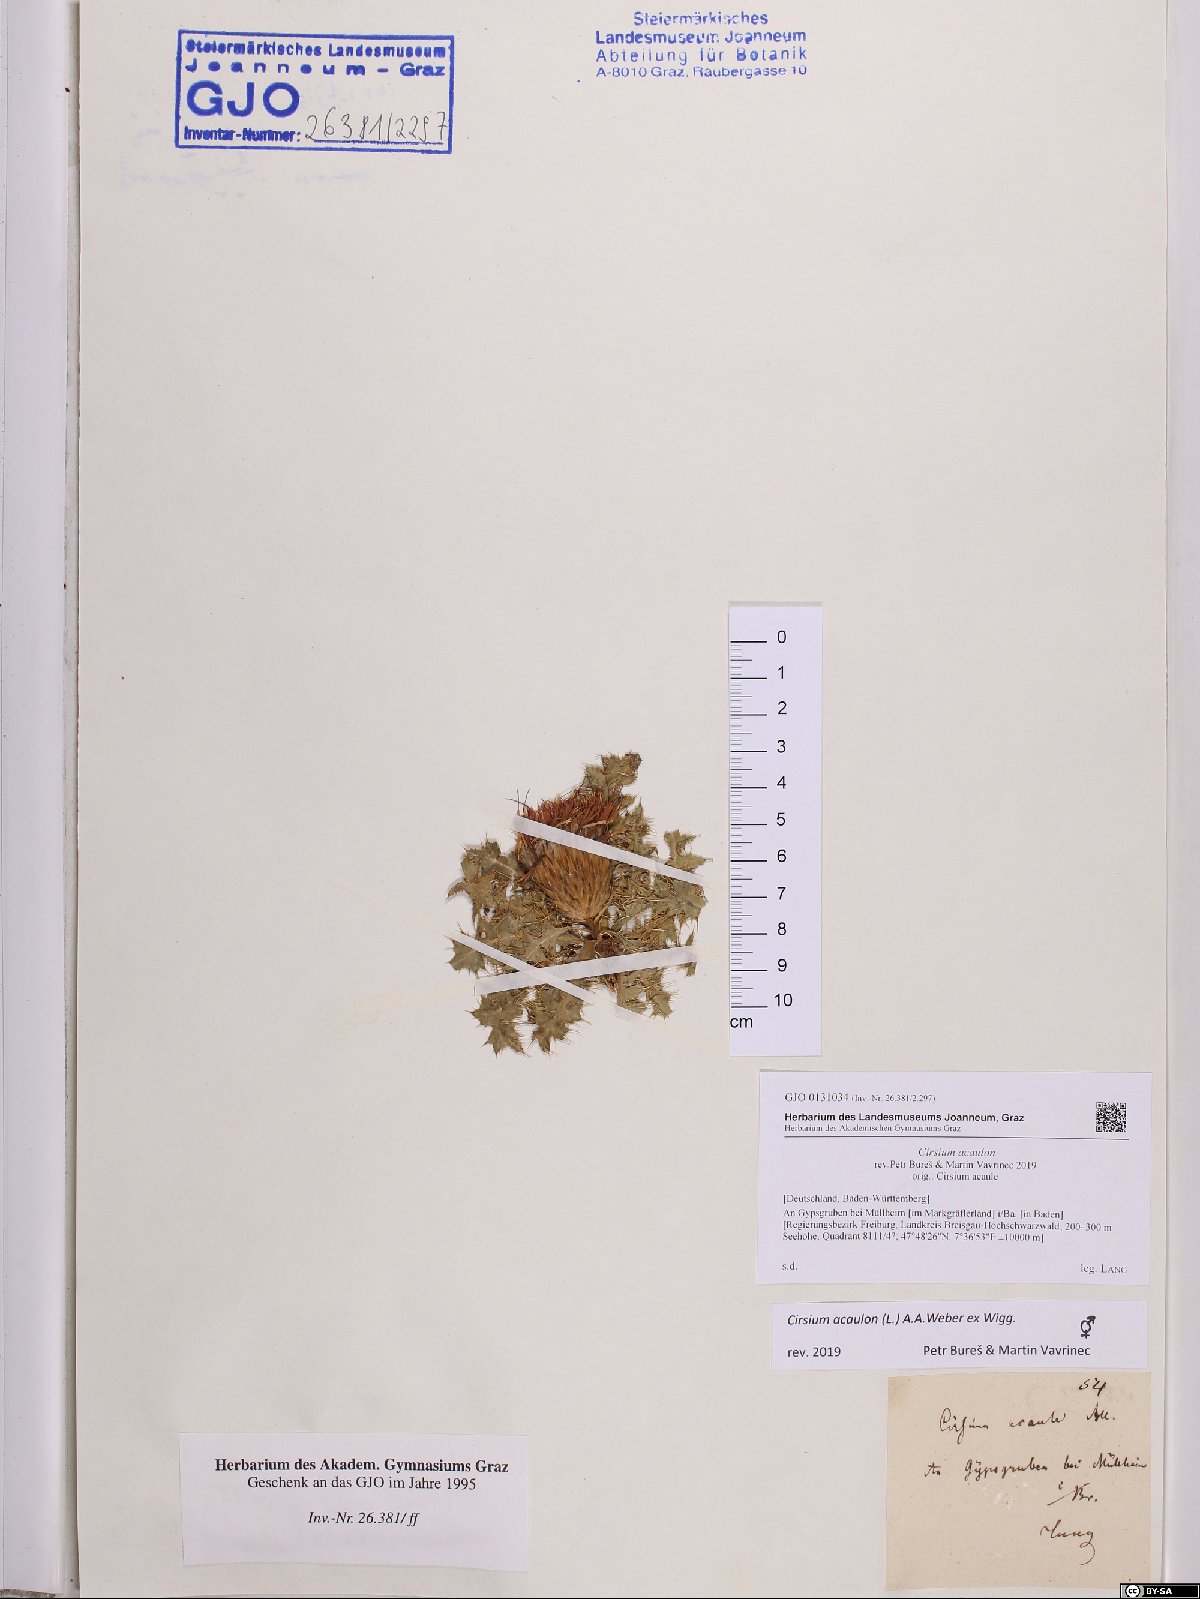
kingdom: Plantae
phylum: Tracheophyta
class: Magnoliopsida
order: Asterales
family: Asteraceae
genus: Cirsium
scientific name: Cirsium acaulon
